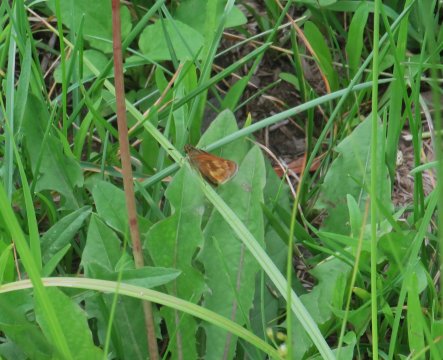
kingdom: Animalia
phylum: Arthropoda
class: Insecta
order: Lepidoptera
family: Hesperiidae
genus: Polites
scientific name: Polites
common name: Long Dash Skipper
